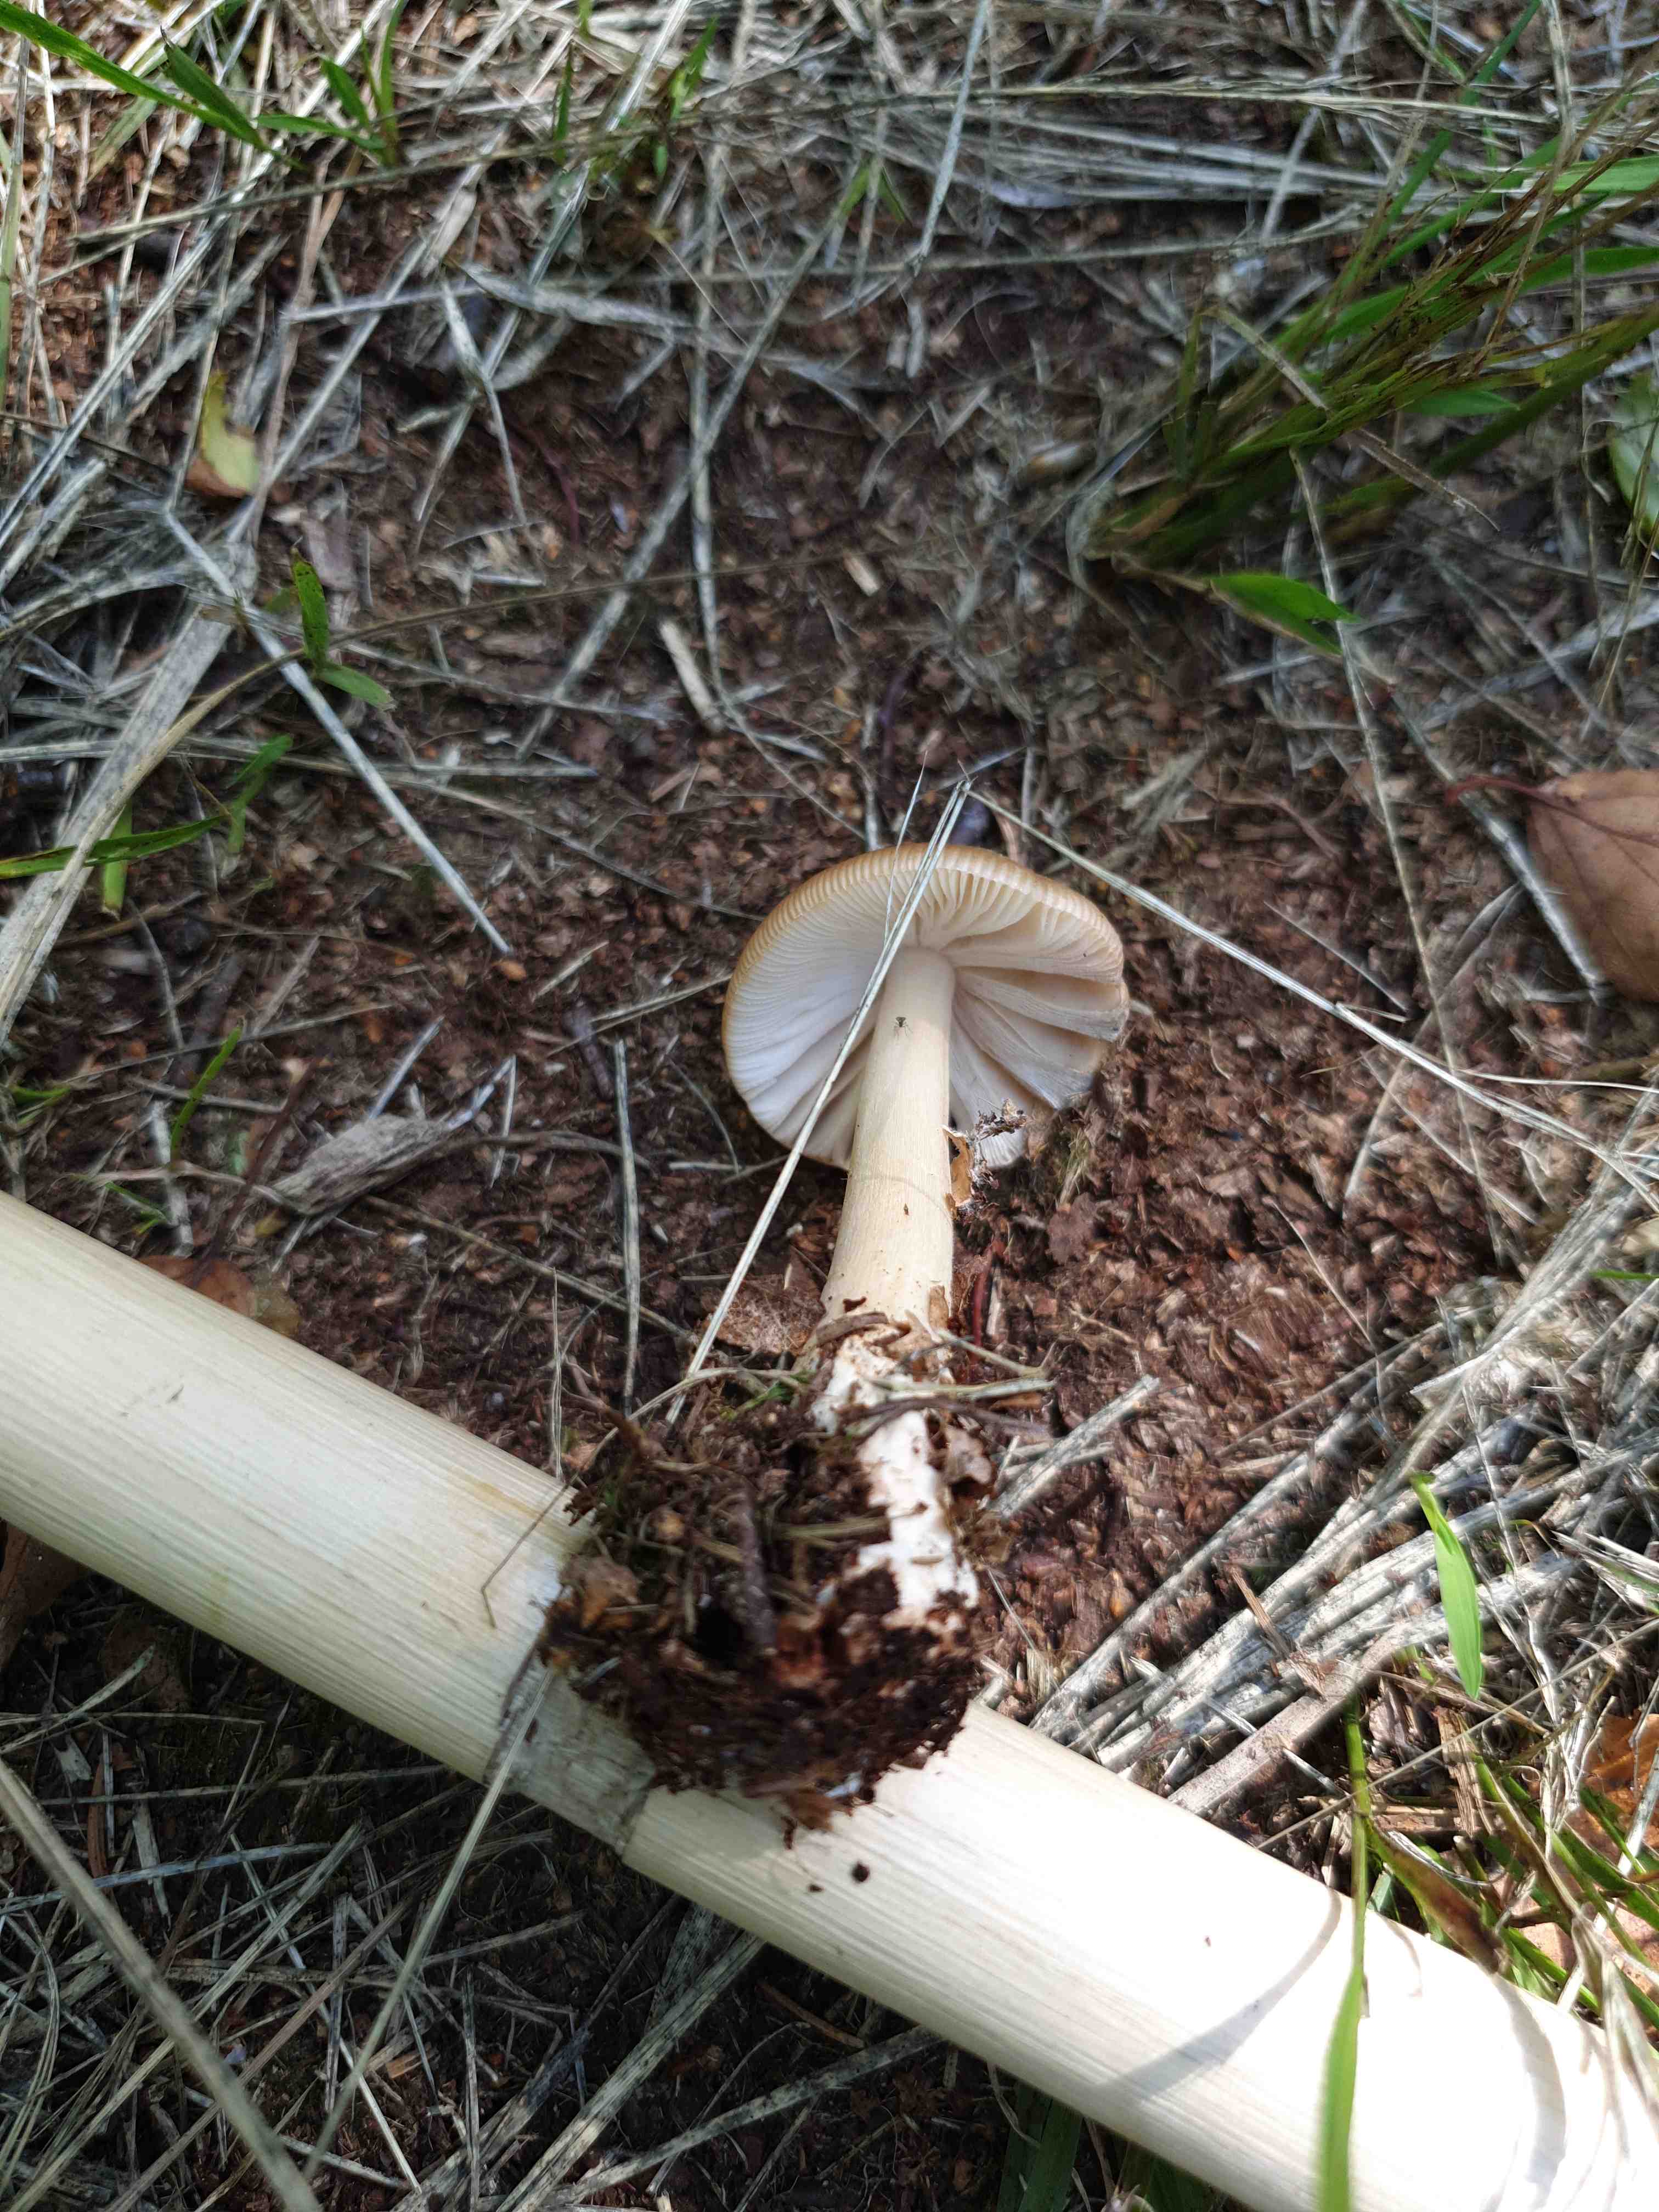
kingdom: Fungi
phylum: Basidiomycota
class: Agaricomycetes
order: Agaricales
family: Amanitaceae
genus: Amanita
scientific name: Amanita fulva
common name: brun kam-fluesvamp
